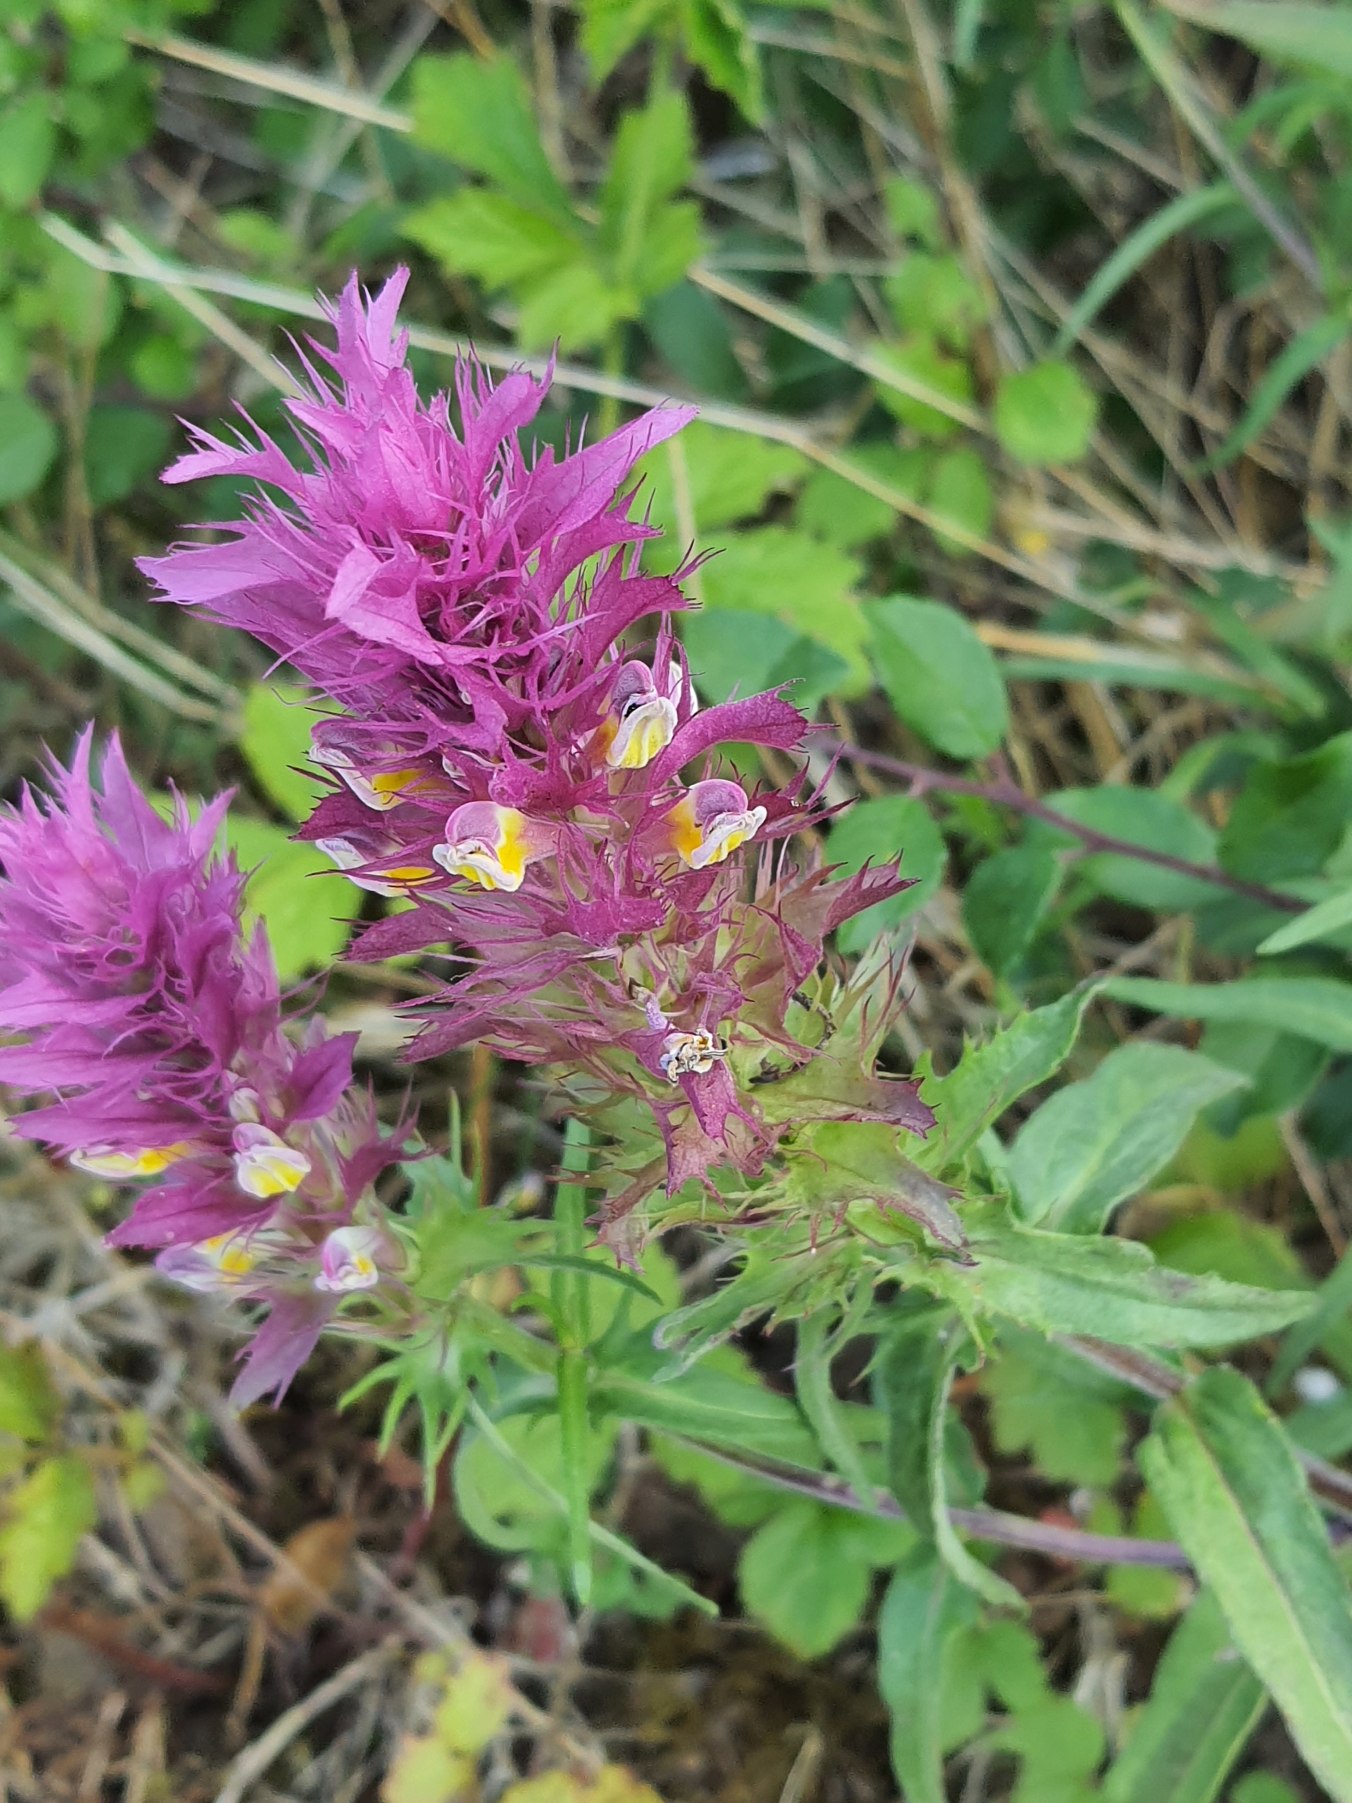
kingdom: Plantae
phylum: Tracheophyta
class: Magnoliopsida
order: Lamiales
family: Orobanchaceae
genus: Melampyrum
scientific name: Melampyrum arvense
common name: Ager-kohvede
